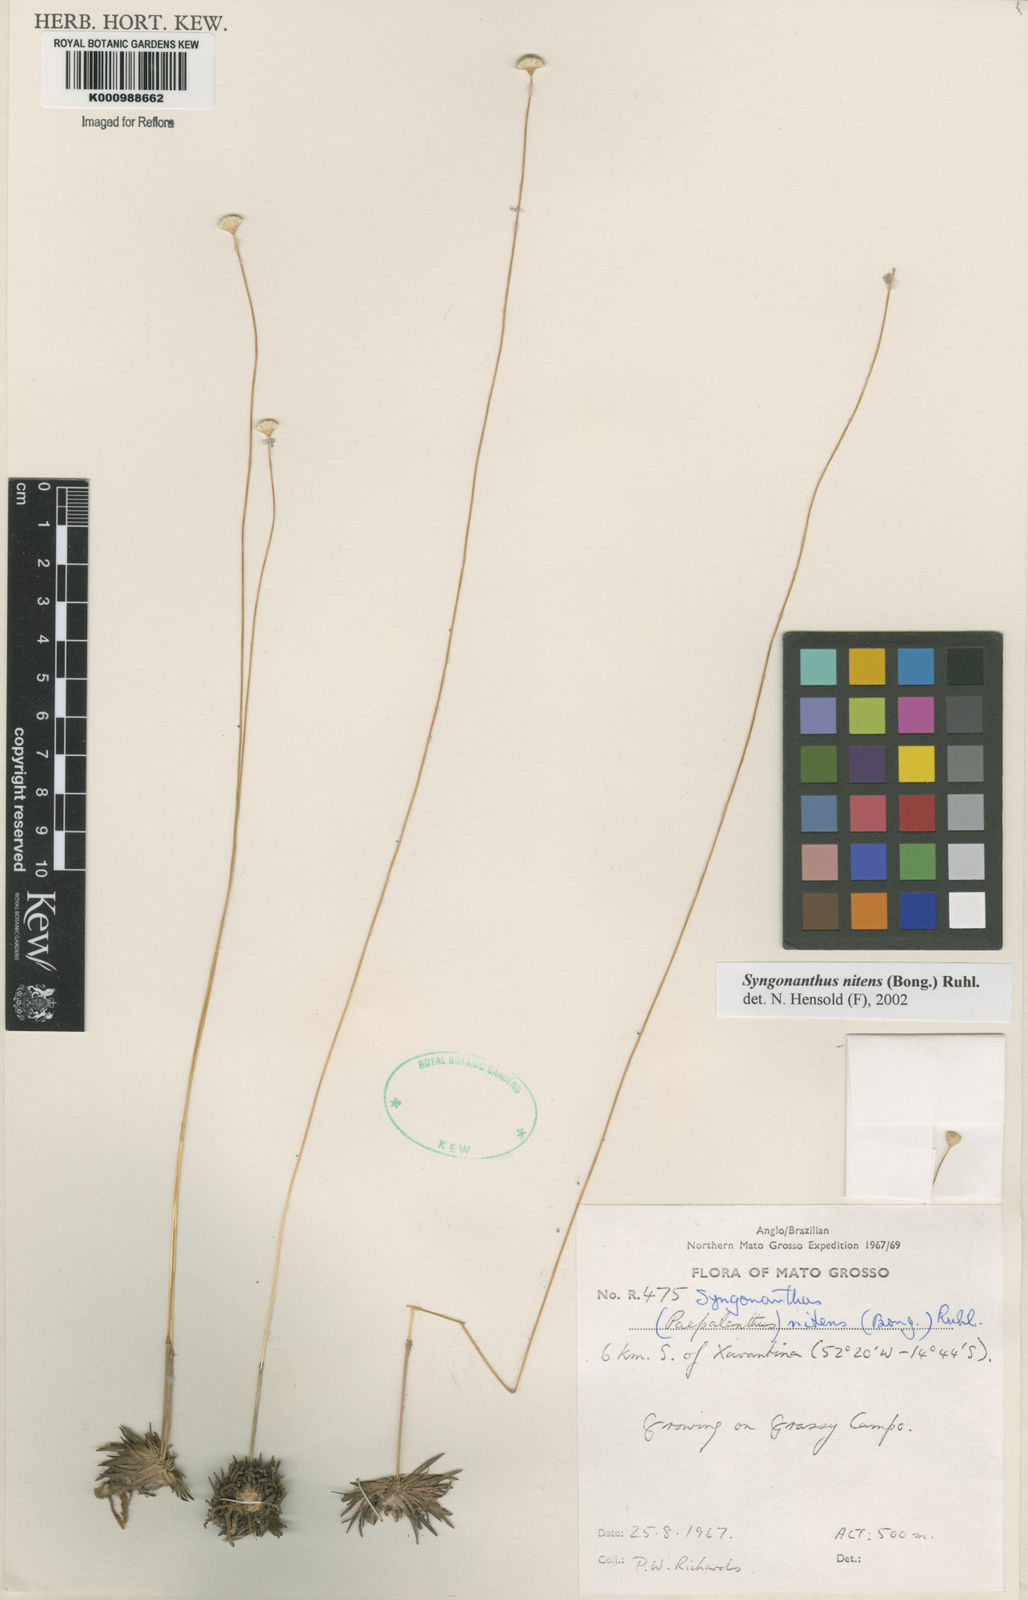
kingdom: Plantae
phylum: Tracheophyta
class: Liliopsida
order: Poales
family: Eriocaulaceae
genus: Syngonanthus
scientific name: Syngonanthus nitens
